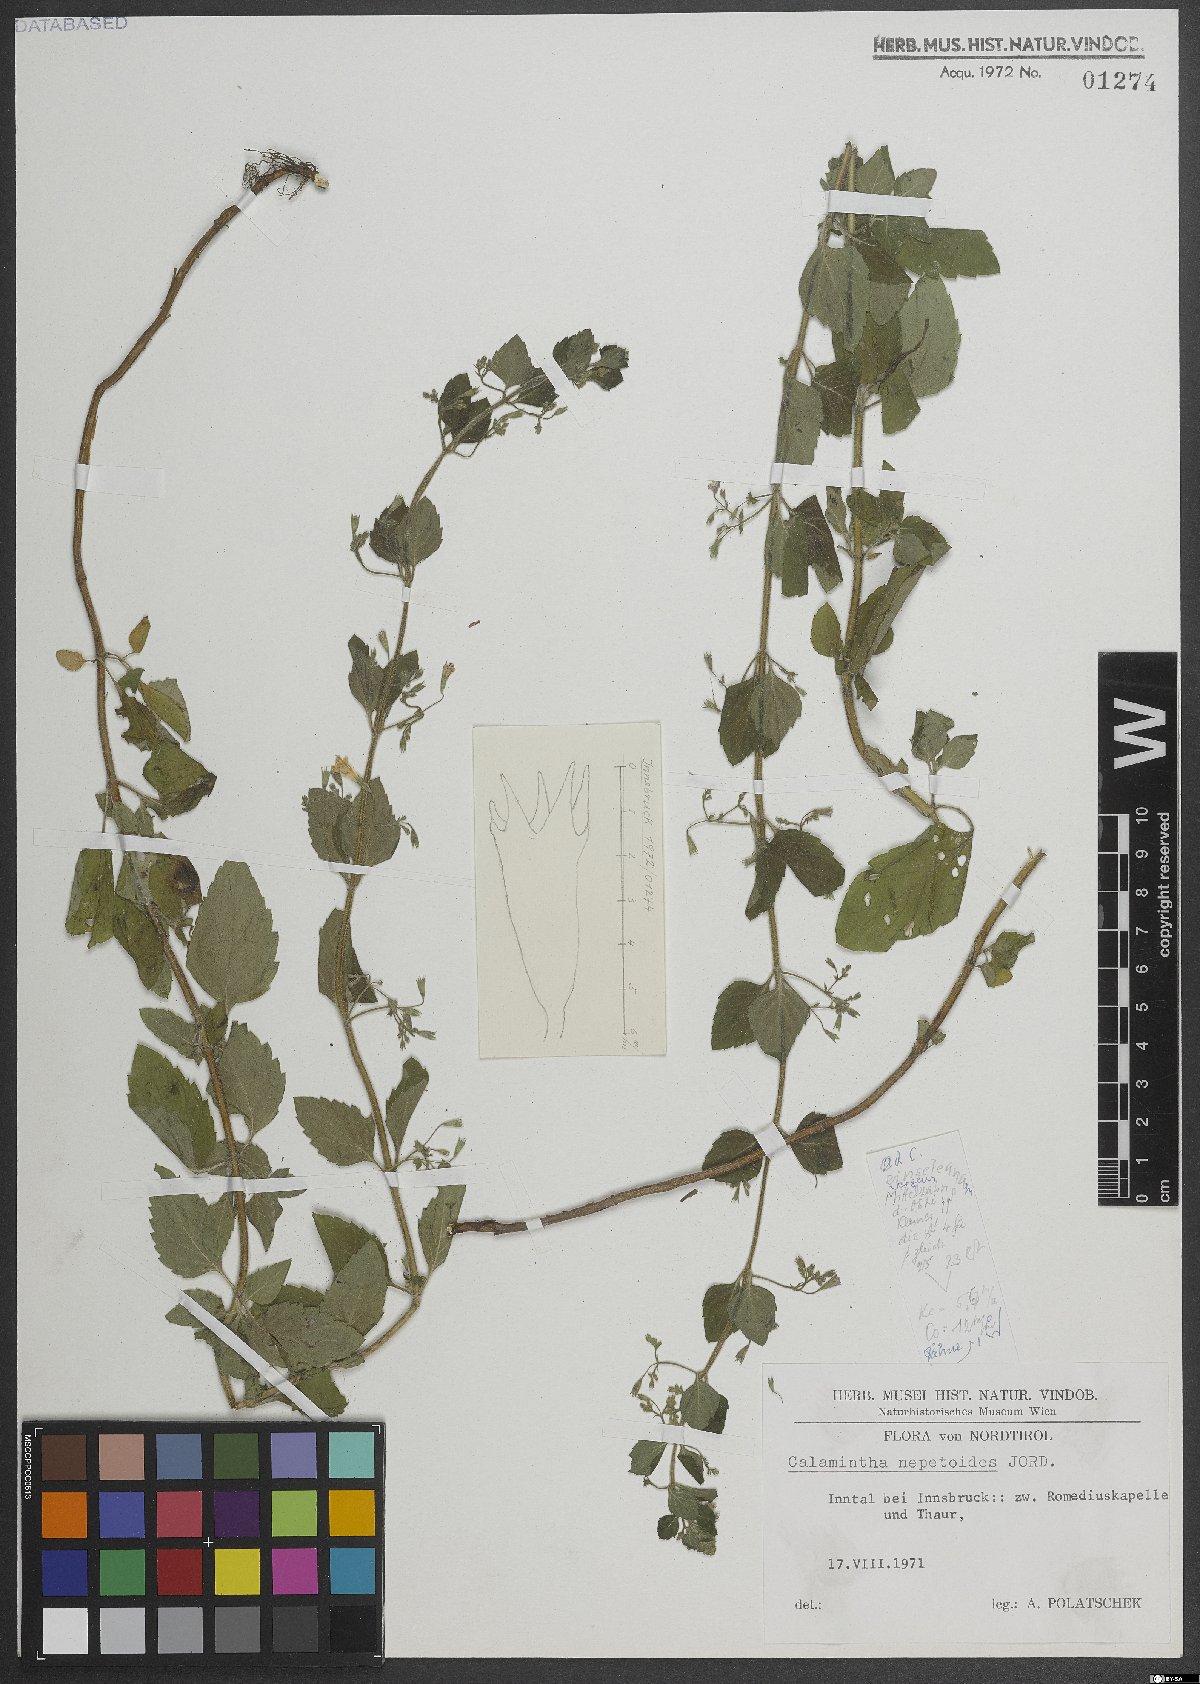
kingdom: Plantae
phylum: Tracheophyta
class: Magnoliopsida
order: Lamiales
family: Lamiaceae
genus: Clinopodium
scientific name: Clinopodium nepeta
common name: Lesser calamint
